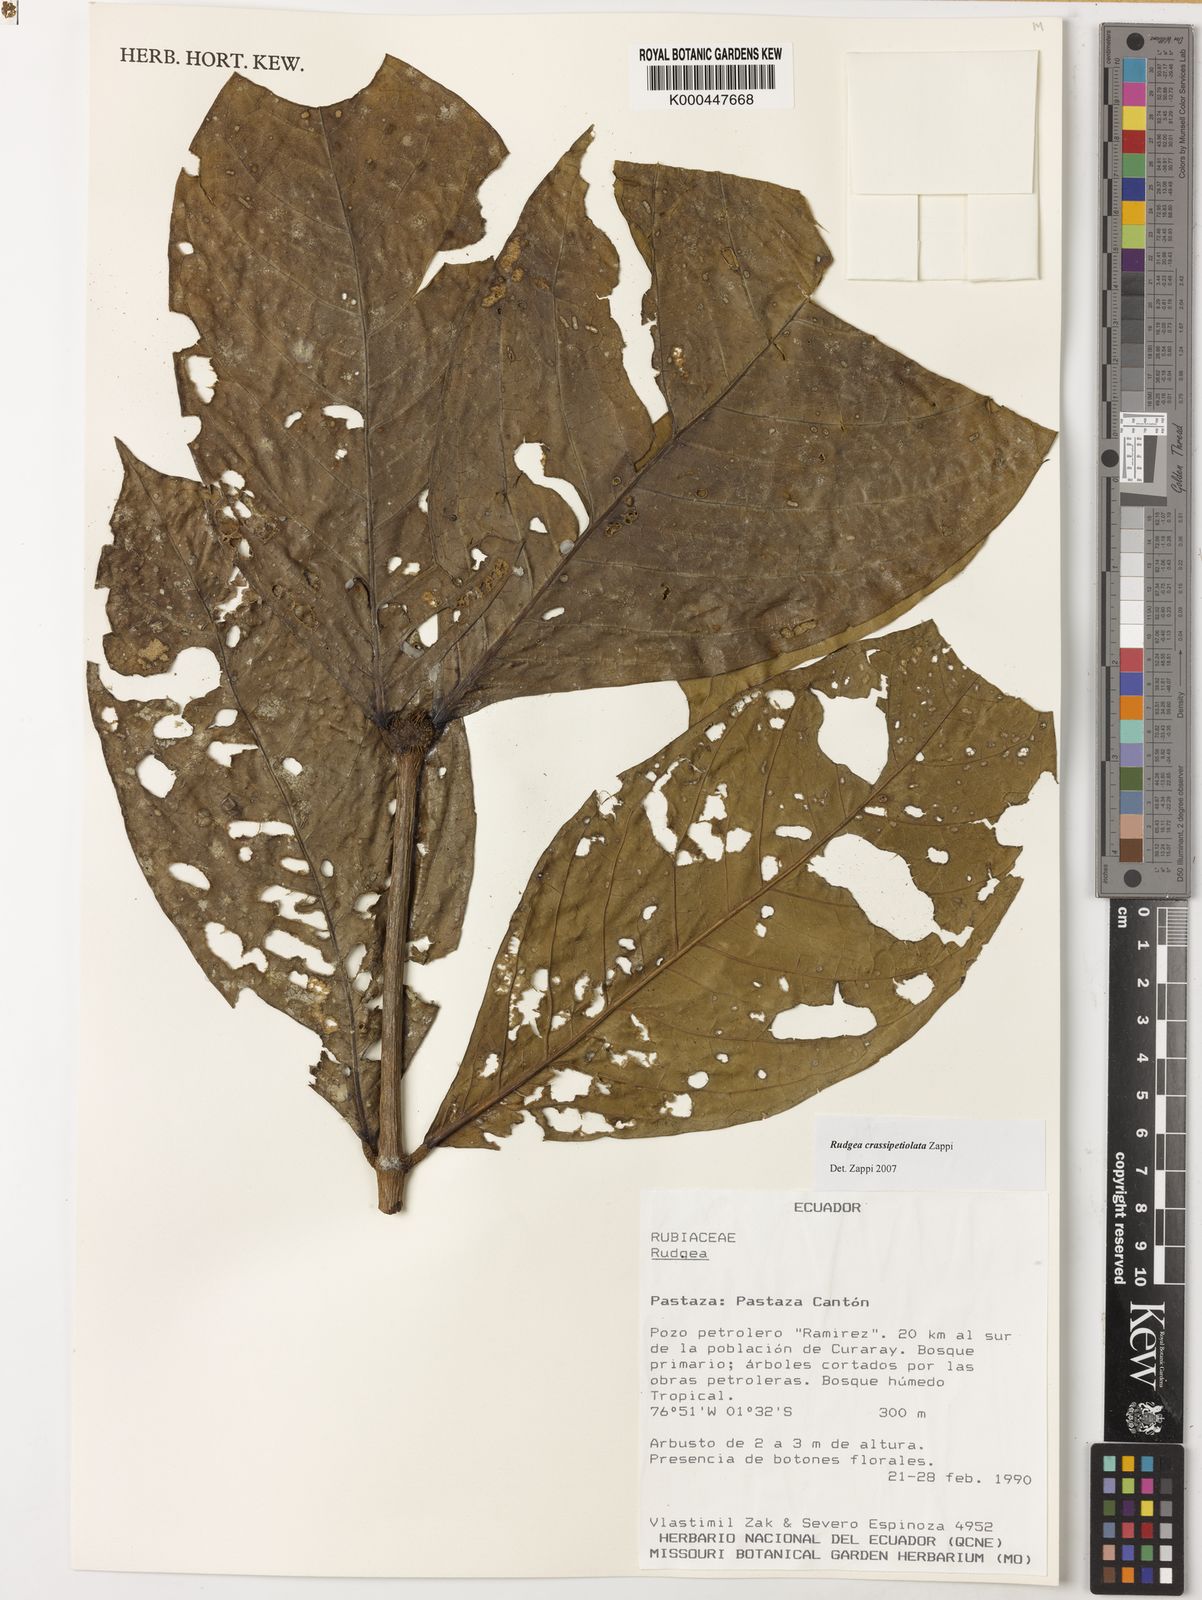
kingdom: Plantae
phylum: Tracheophyta
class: Magnoliopsida
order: Gentianales
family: Rubiaceae
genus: Rudgea
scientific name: Rudgea crassipetiolata
